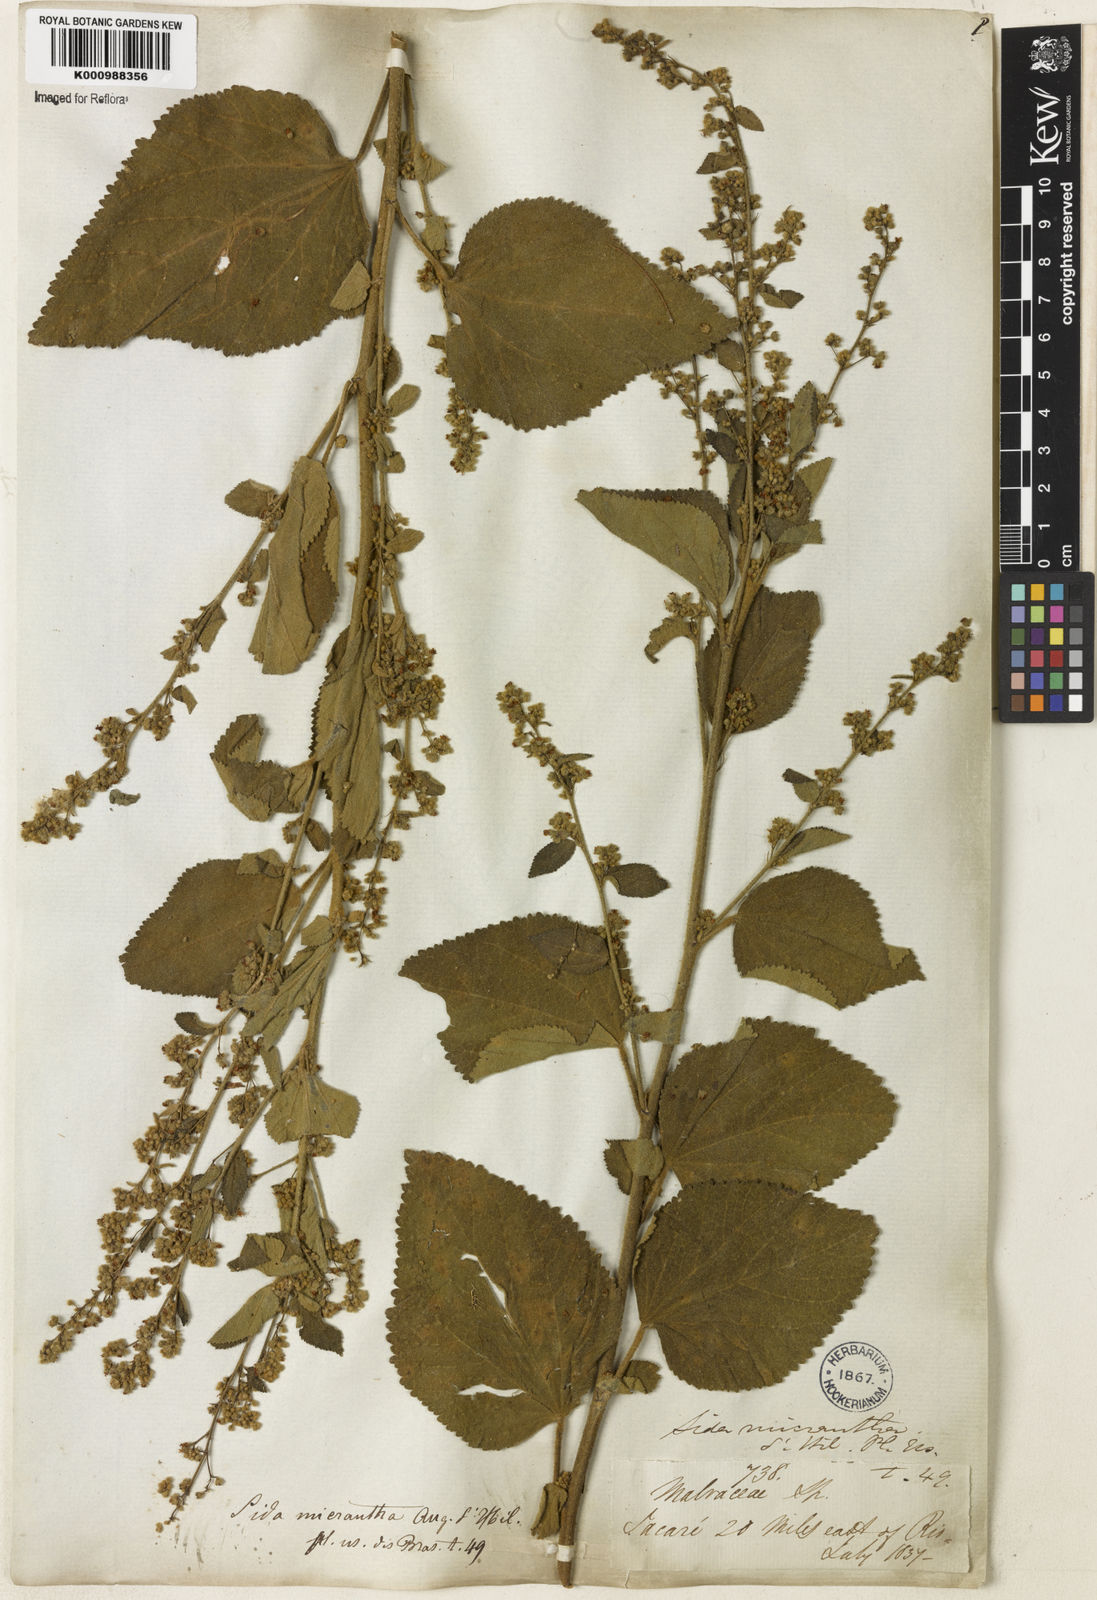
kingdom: Plantae
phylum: Tracheophyta
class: Magnoliopsida
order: Malvales
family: Malvaceae
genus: Sidastrum
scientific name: Sidastrum micranthum
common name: Dainty sandmallow
